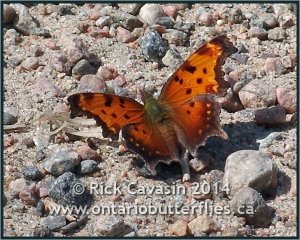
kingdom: Animalia
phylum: Arthropoda
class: Insecta
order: Lepidoptera
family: Nymphalidae
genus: Polygonia
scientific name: Polygonia progne
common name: Gray Comma
